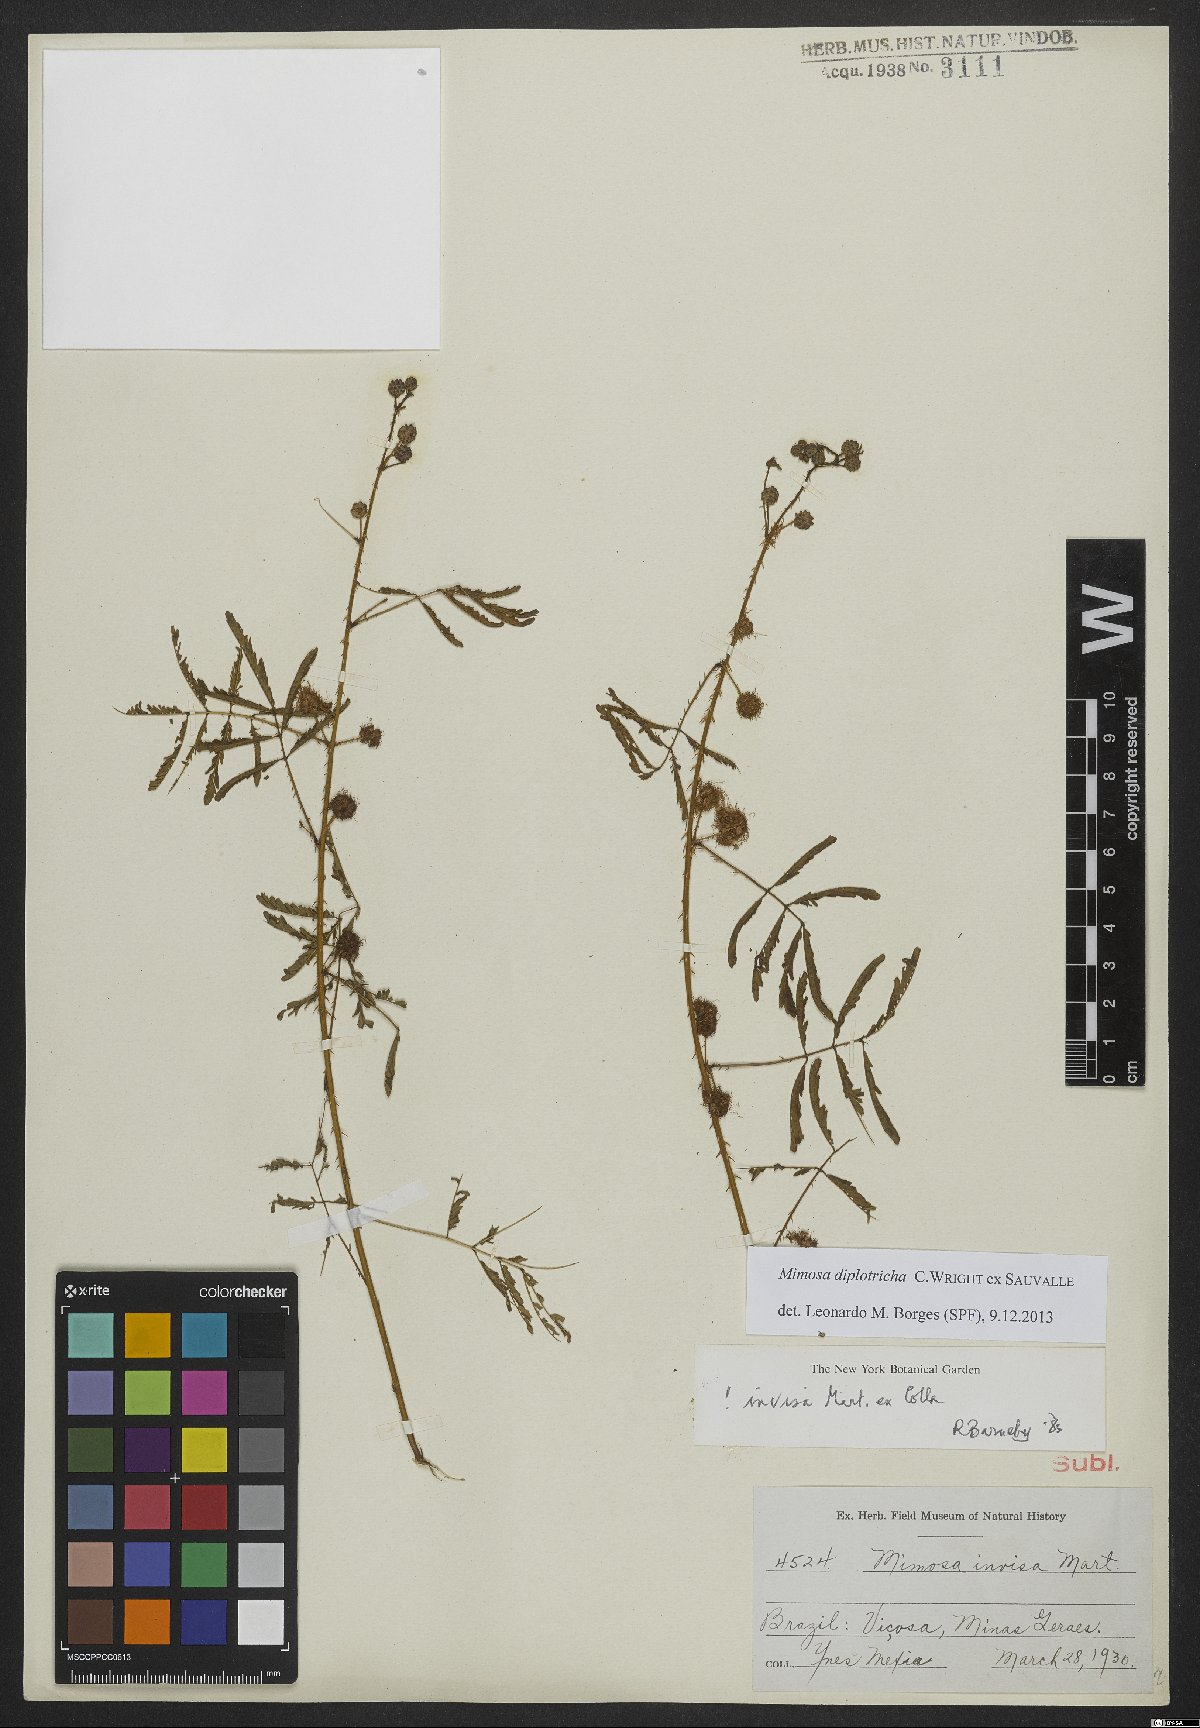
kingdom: Plantae
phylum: Tracheophyta
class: Magnoliopsida
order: Fabales
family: Fabaceae
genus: Mimosa
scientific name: Mimosa diplotricha
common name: Giant sensitive-plant
